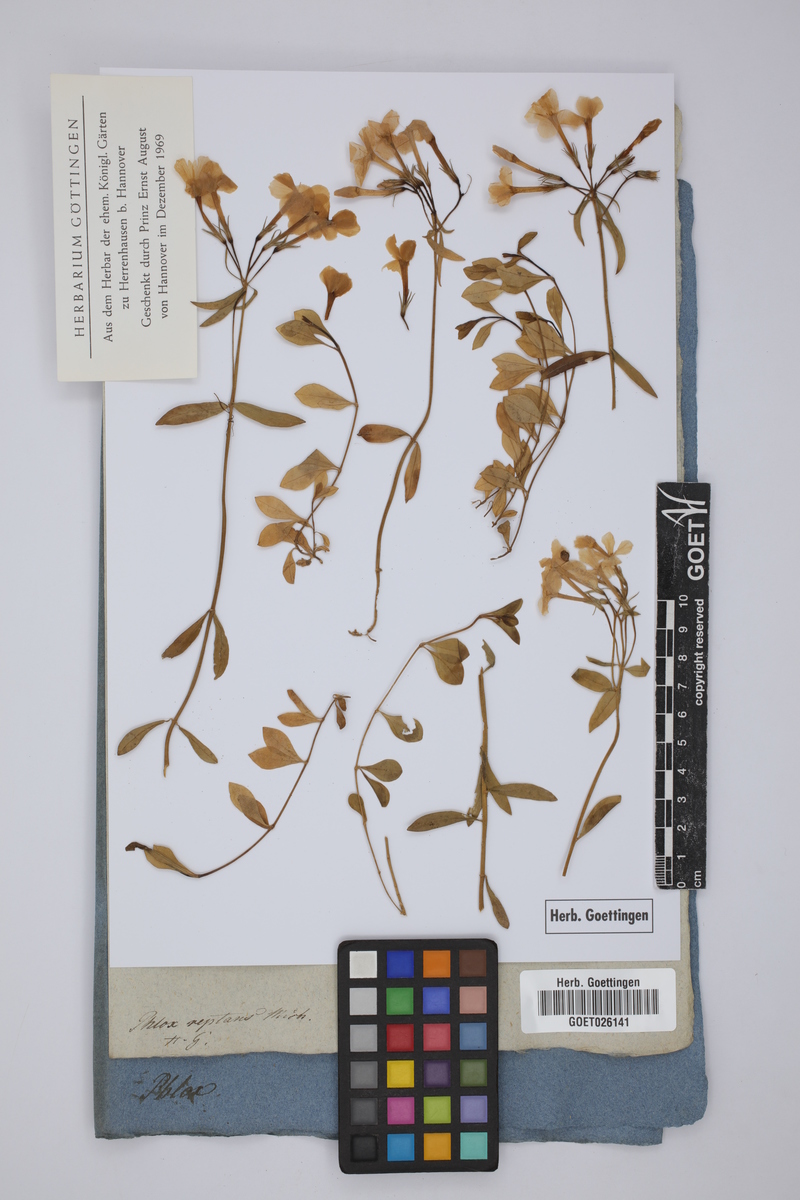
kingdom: Plantae
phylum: Tracheophyta
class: Magnoliopsida
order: Ericales
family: Polemoniaceae
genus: Phlox
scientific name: Phlox stolonifera
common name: Creeping phlox
